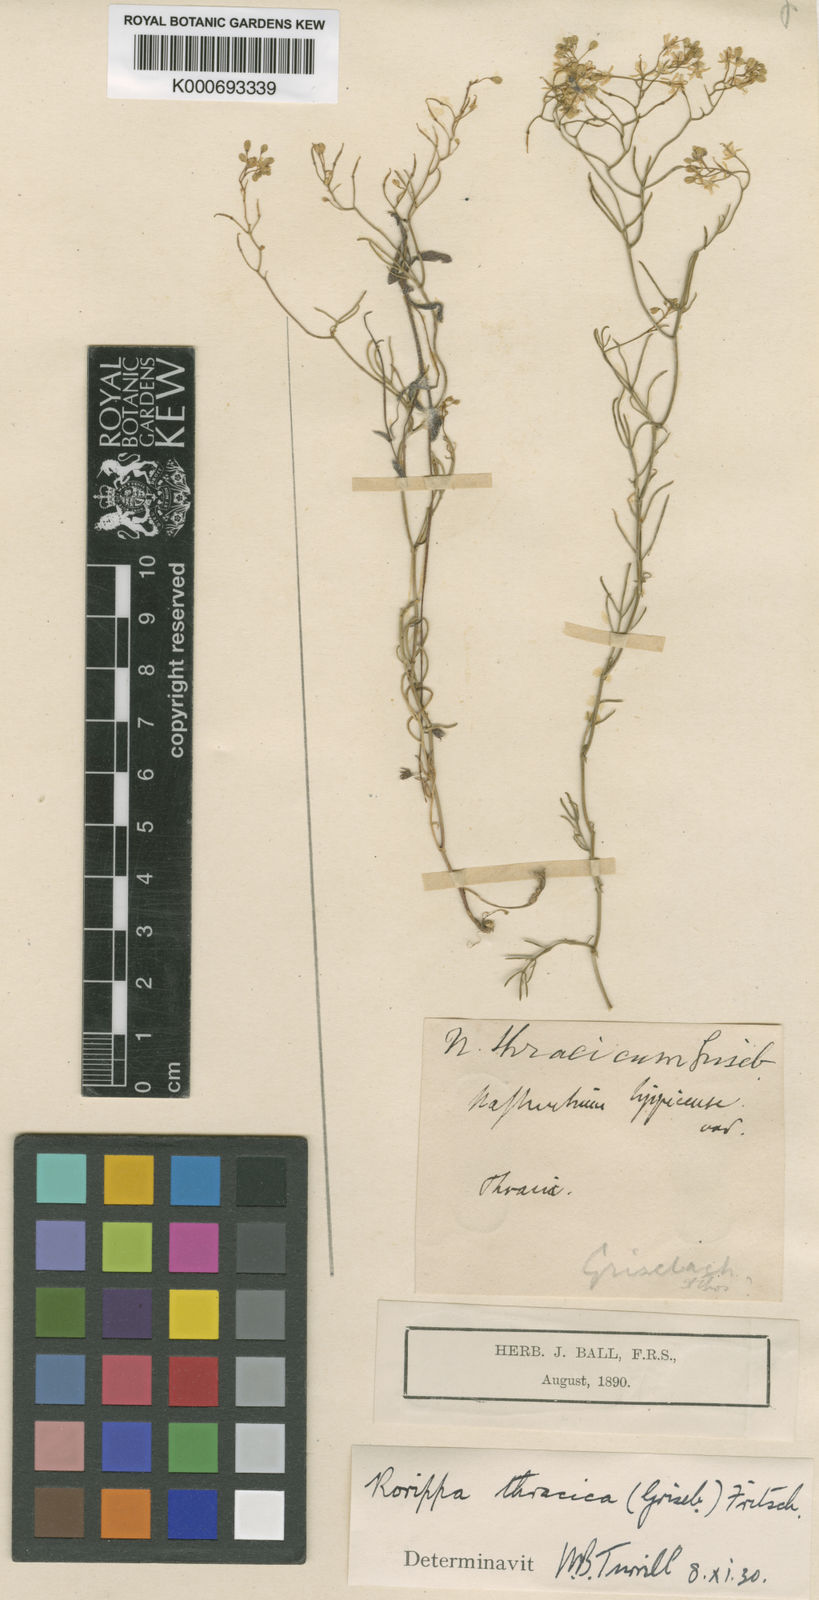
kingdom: Plantae
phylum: Tracheophyta
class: Magnoliopsida
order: Brassicales
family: Brassicaceae
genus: Rorippa
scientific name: Rorippa lippizensis
